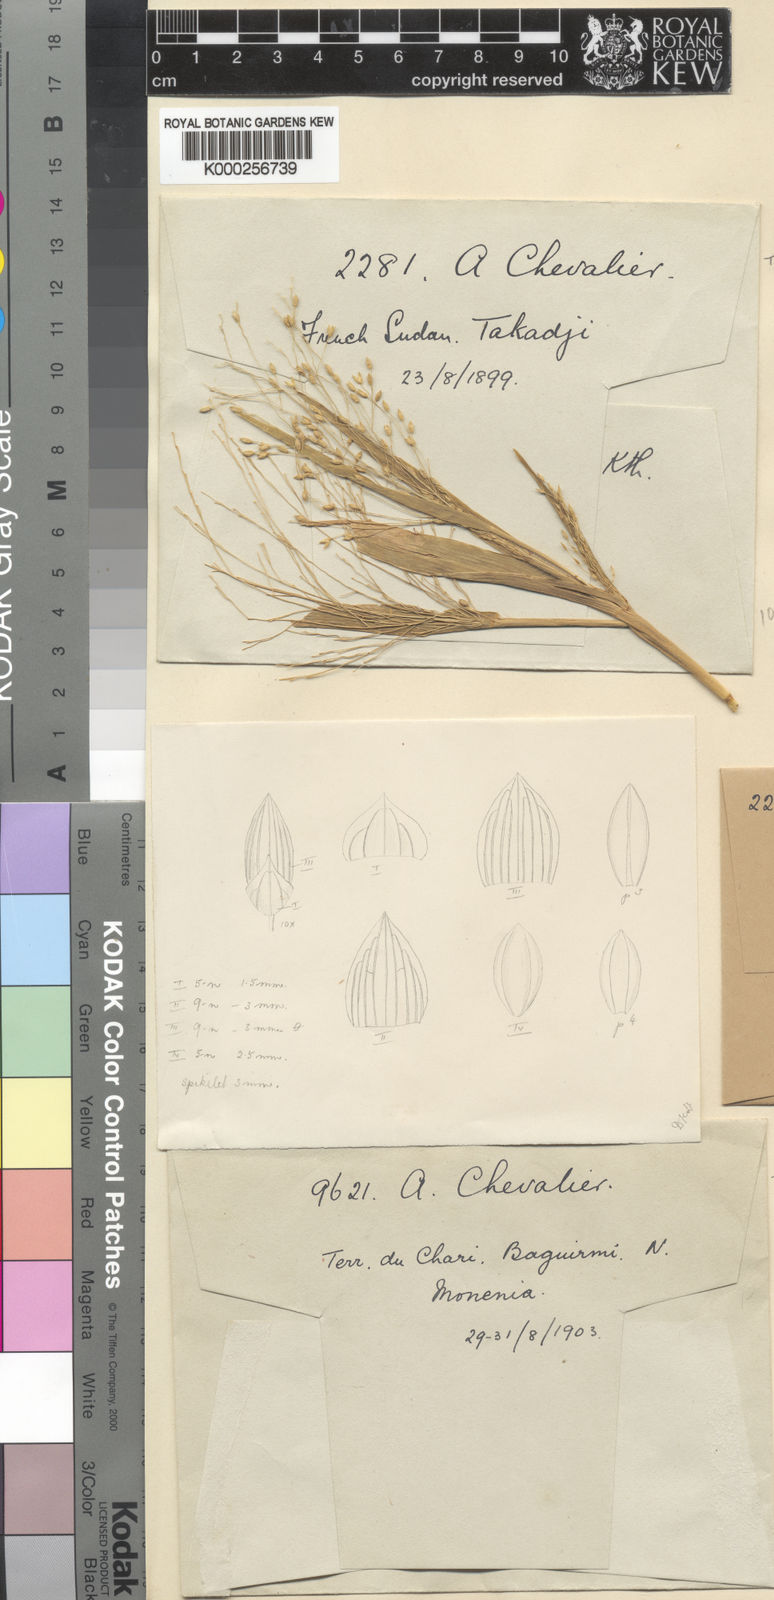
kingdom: Plantae
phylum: Tracheophyta
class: Liliopsida
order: Poales
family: Poaceae
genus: Panicum
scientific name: Panicum laetum
